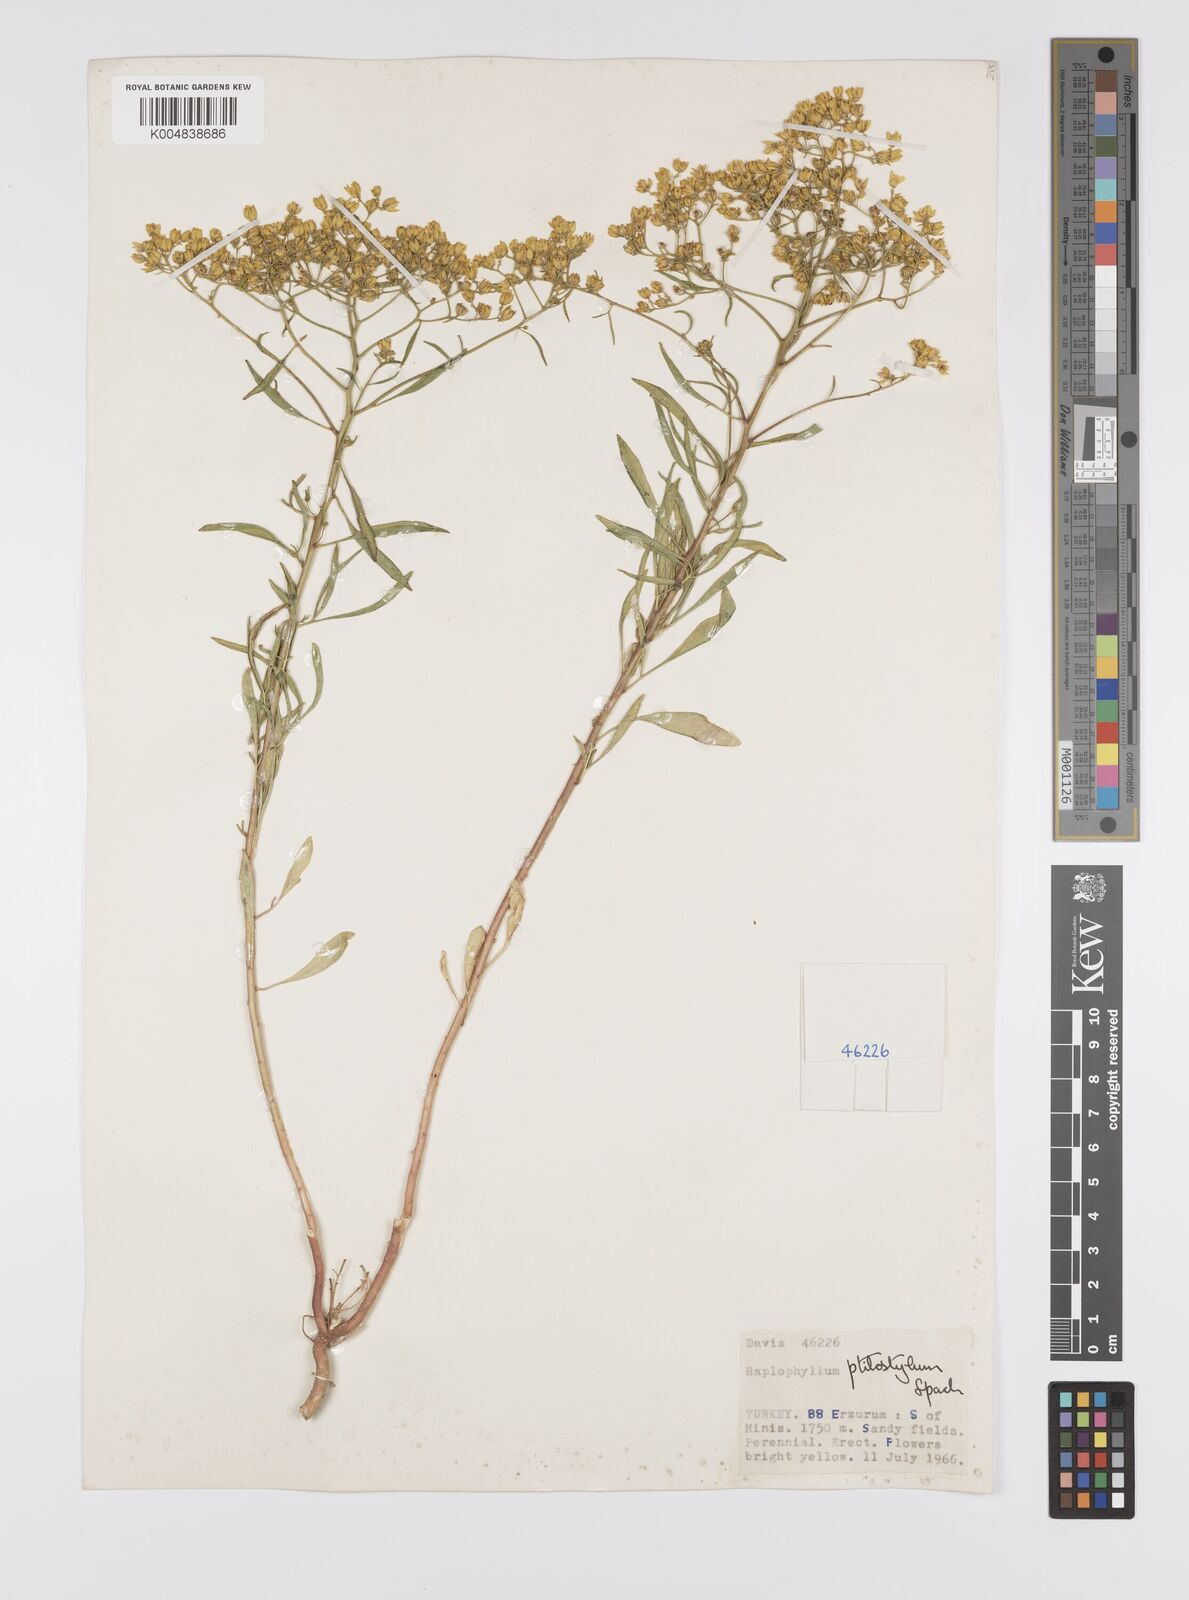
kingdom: Plantae
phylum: Tracheophyta
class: Magnoliopsida
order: Sapindales
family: Rutaceae
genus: Haplophyllum
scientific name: Haplophyllum ptilostylum
